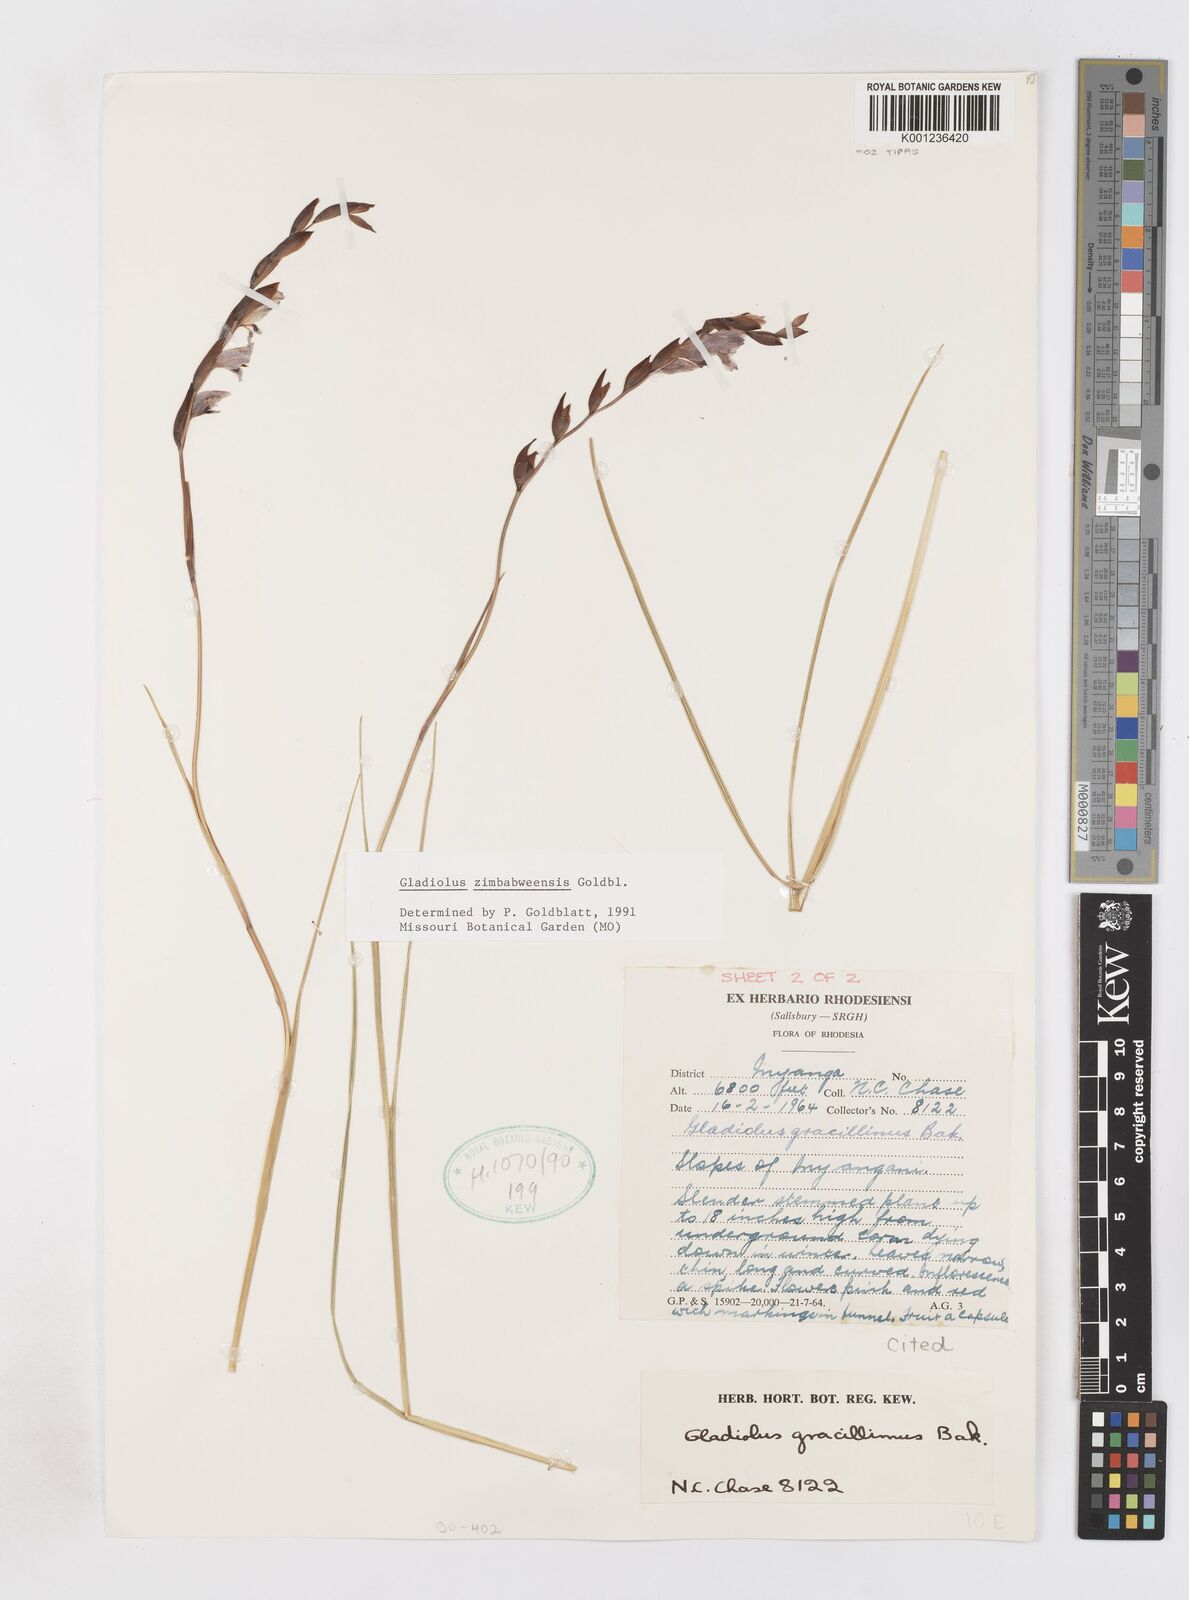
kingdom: Plantae
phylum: Tracheophyta
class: Liliopsida
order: Asparagales
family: Iridaceae
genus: Gladiolus
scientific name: Gladiolus zimbabweensis
